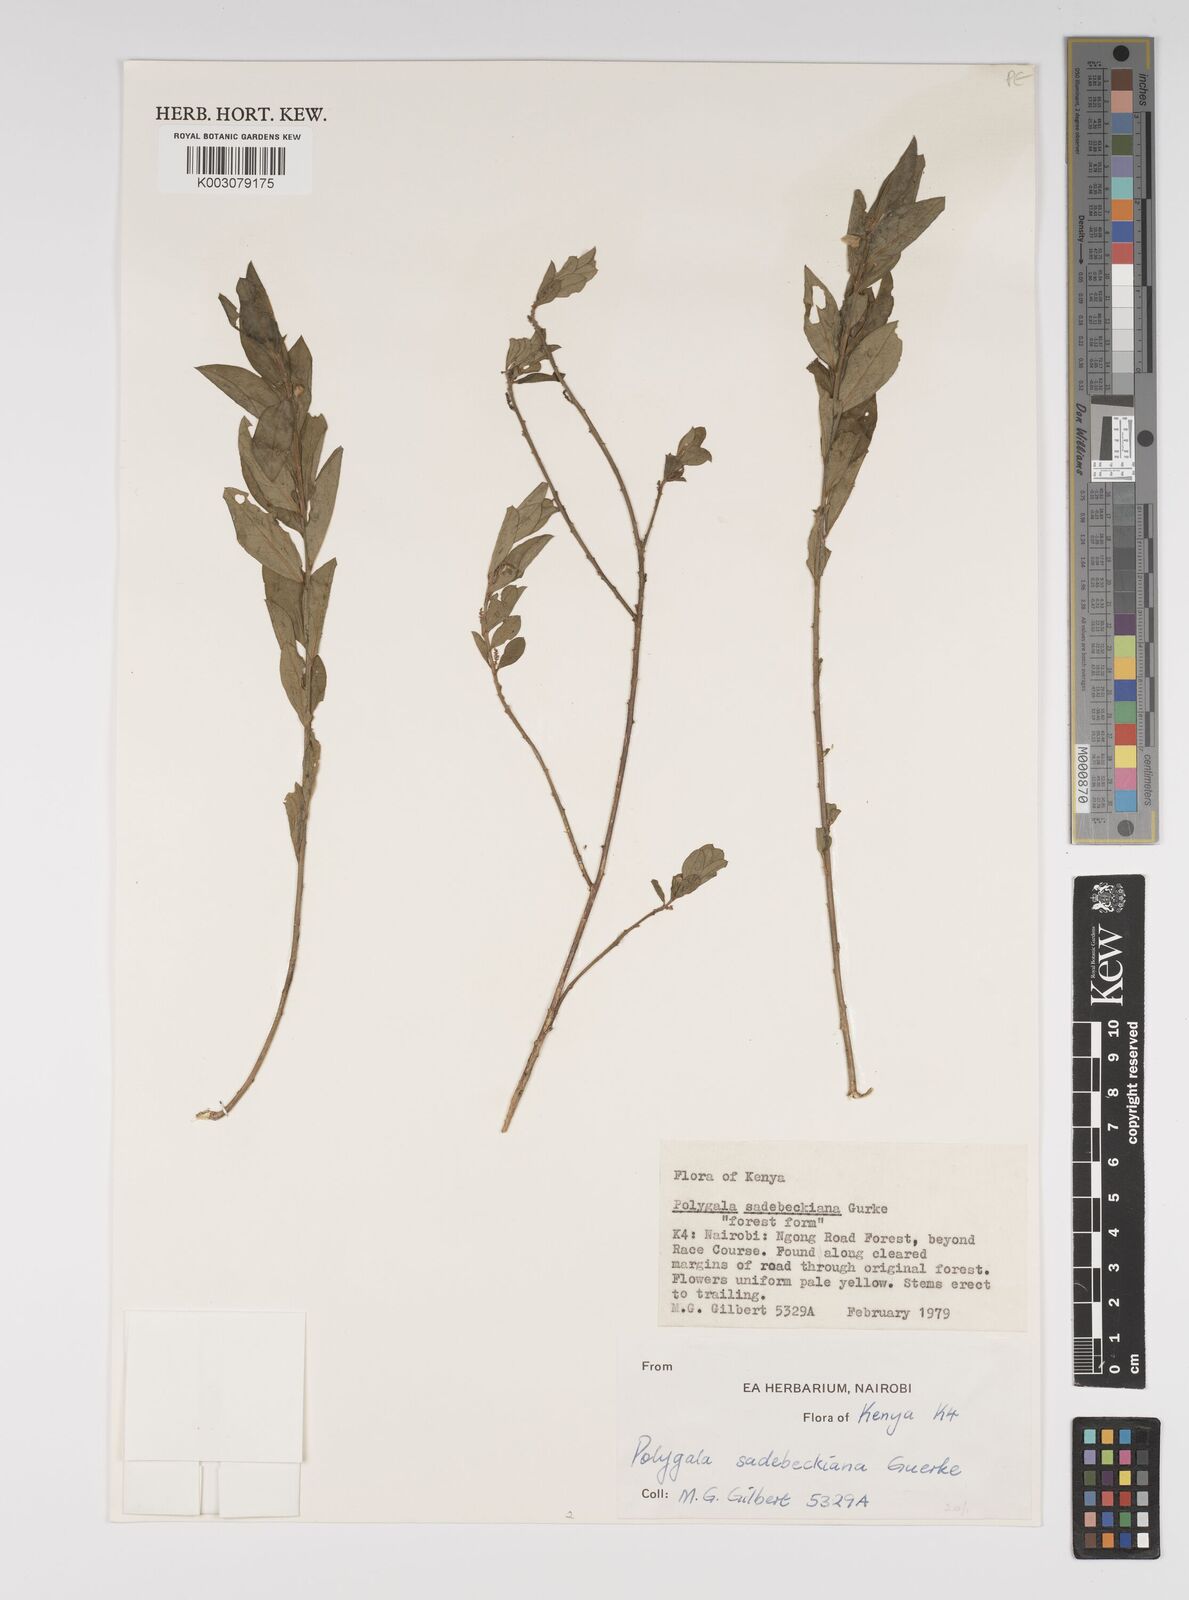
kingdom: Plantae
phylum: Tracheophyta
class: Magnoliopsida
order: Fabales
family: Polygalaceae
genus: Polygala
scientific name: Polygala sadebeckiana
